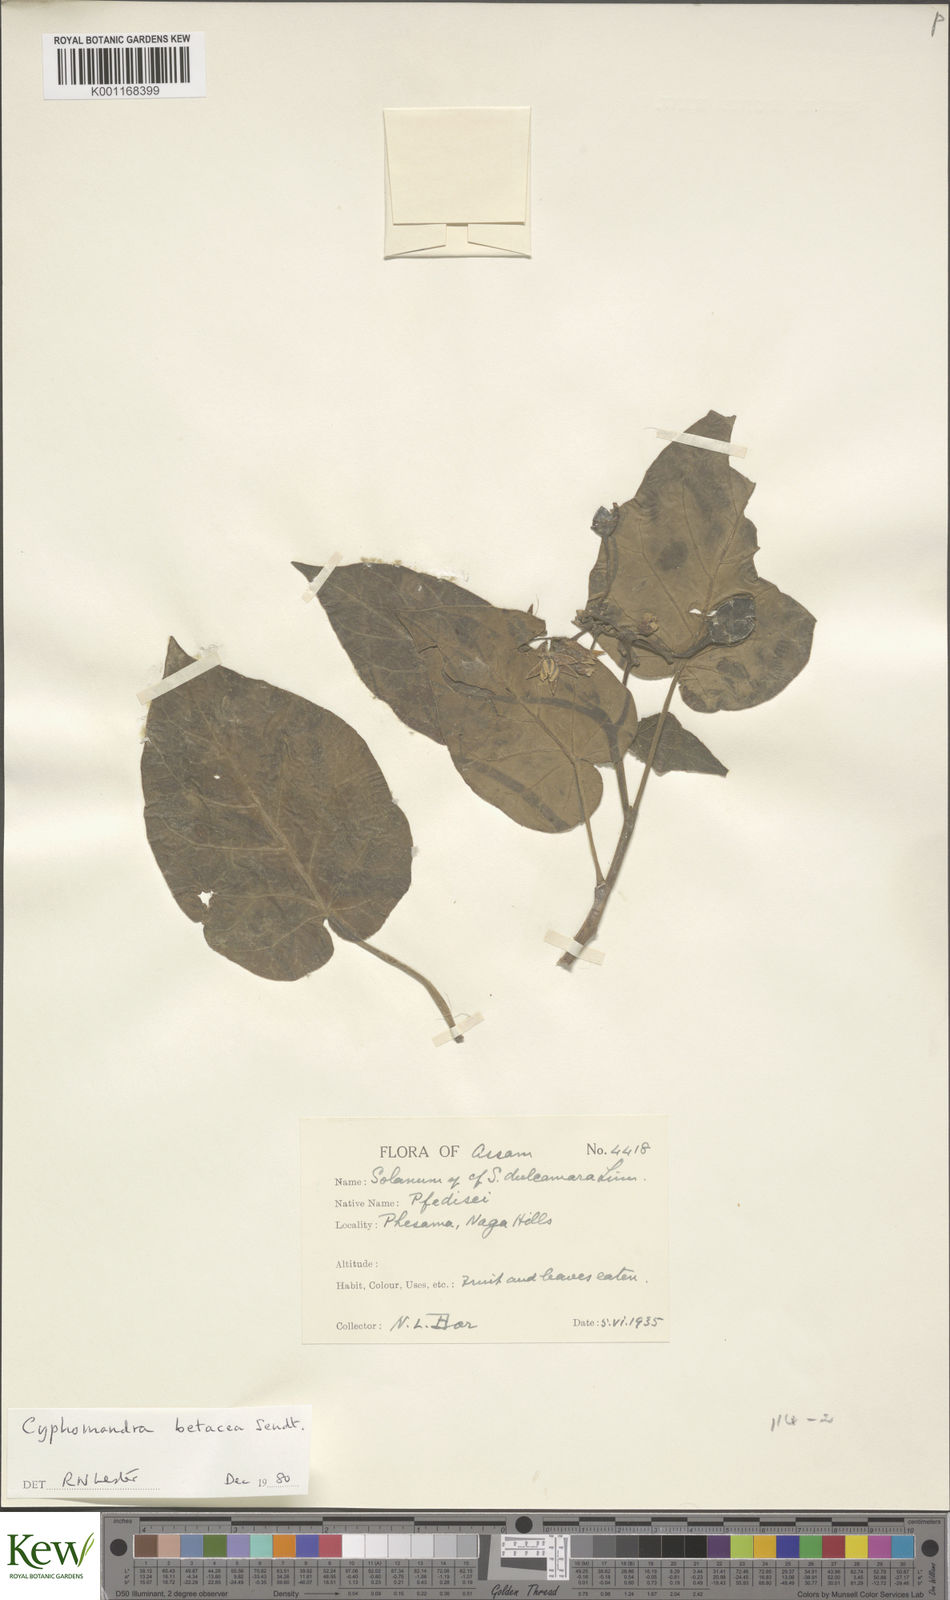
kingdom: Plantae
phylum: Tracheophyta
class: Magnoliopsida
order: Solanales
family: Solanaceae
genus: Solanum
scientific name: Solanum betaceum
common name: Tamarillo
